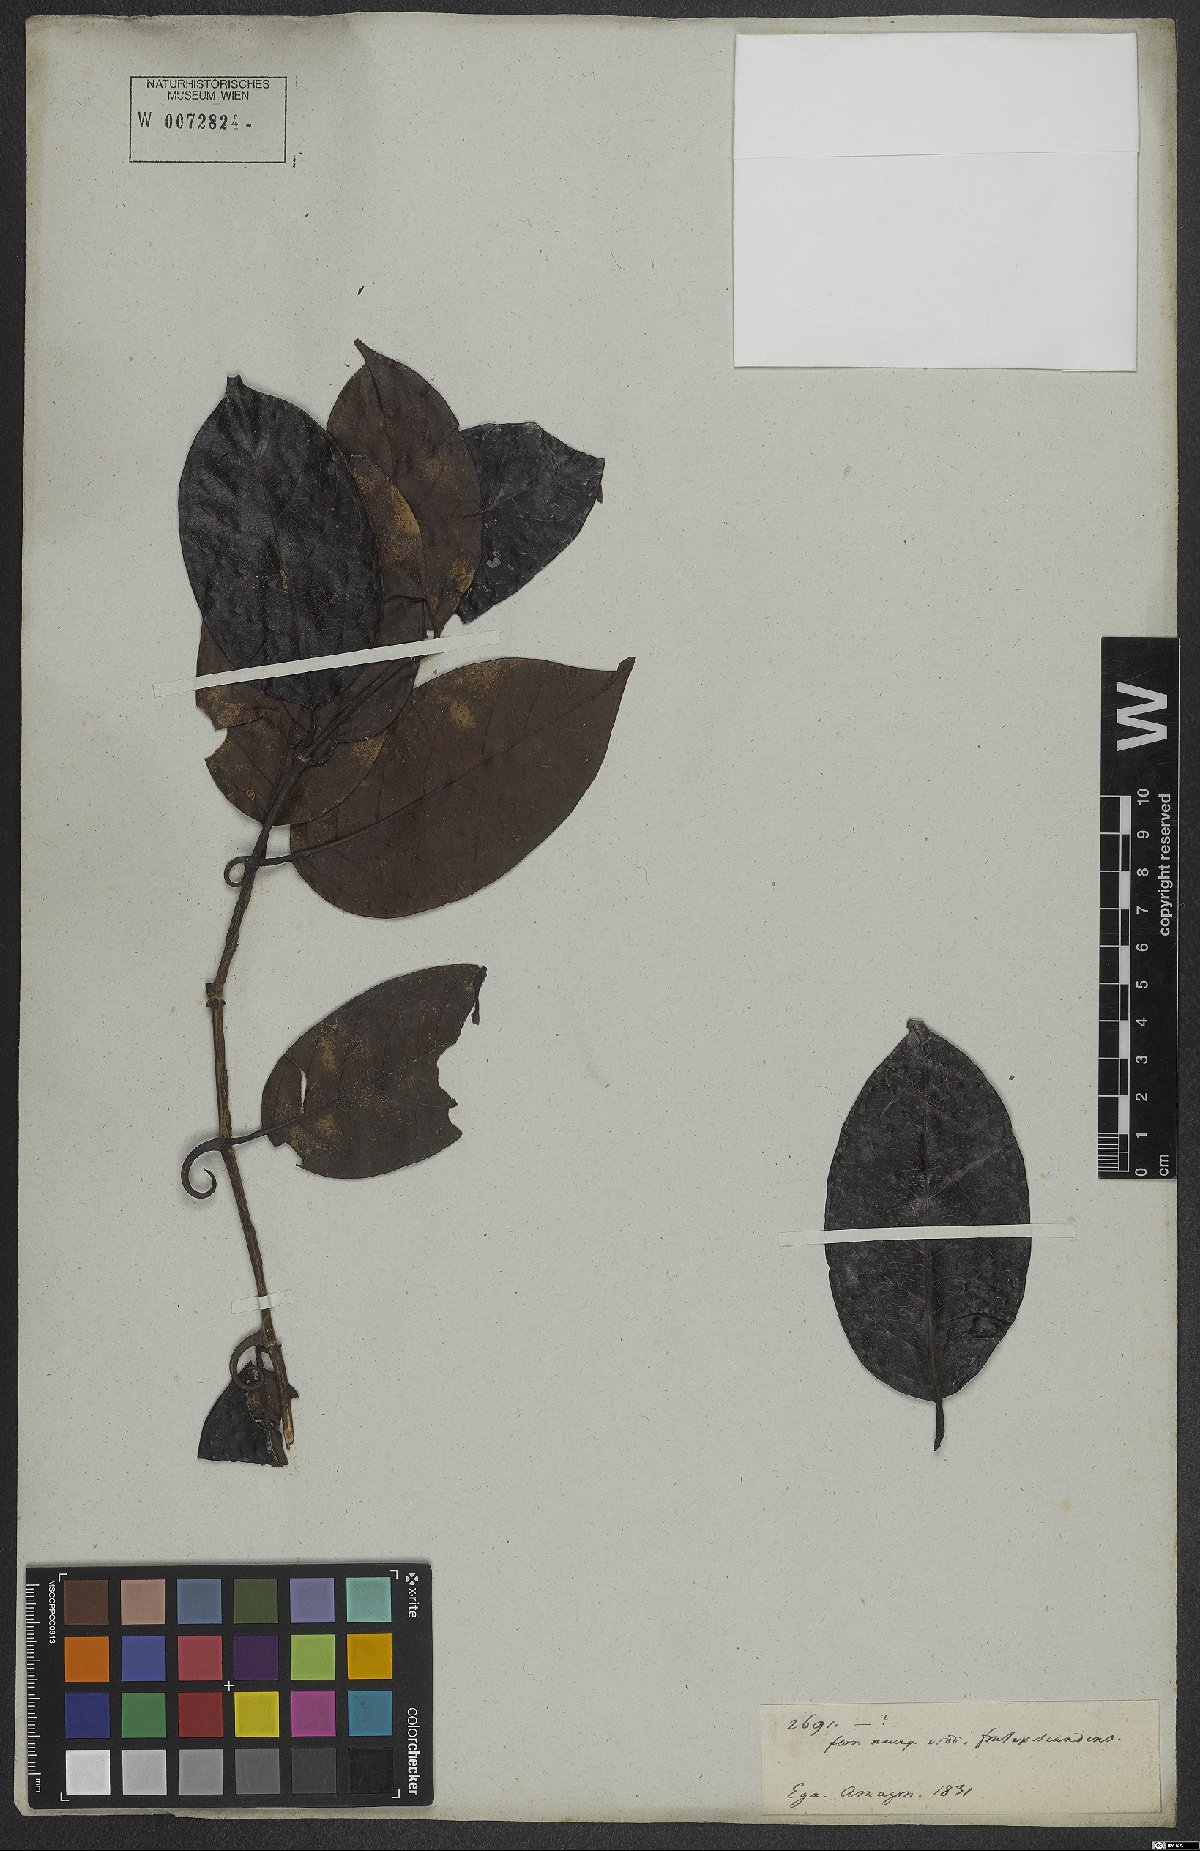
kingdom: Plantae
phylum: Tracheophyta
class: Magnoliopsida
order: Gentianales
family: Rubiaceae
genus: Uncaria
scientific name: Uncaria guianensis
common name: Cat's-claw
